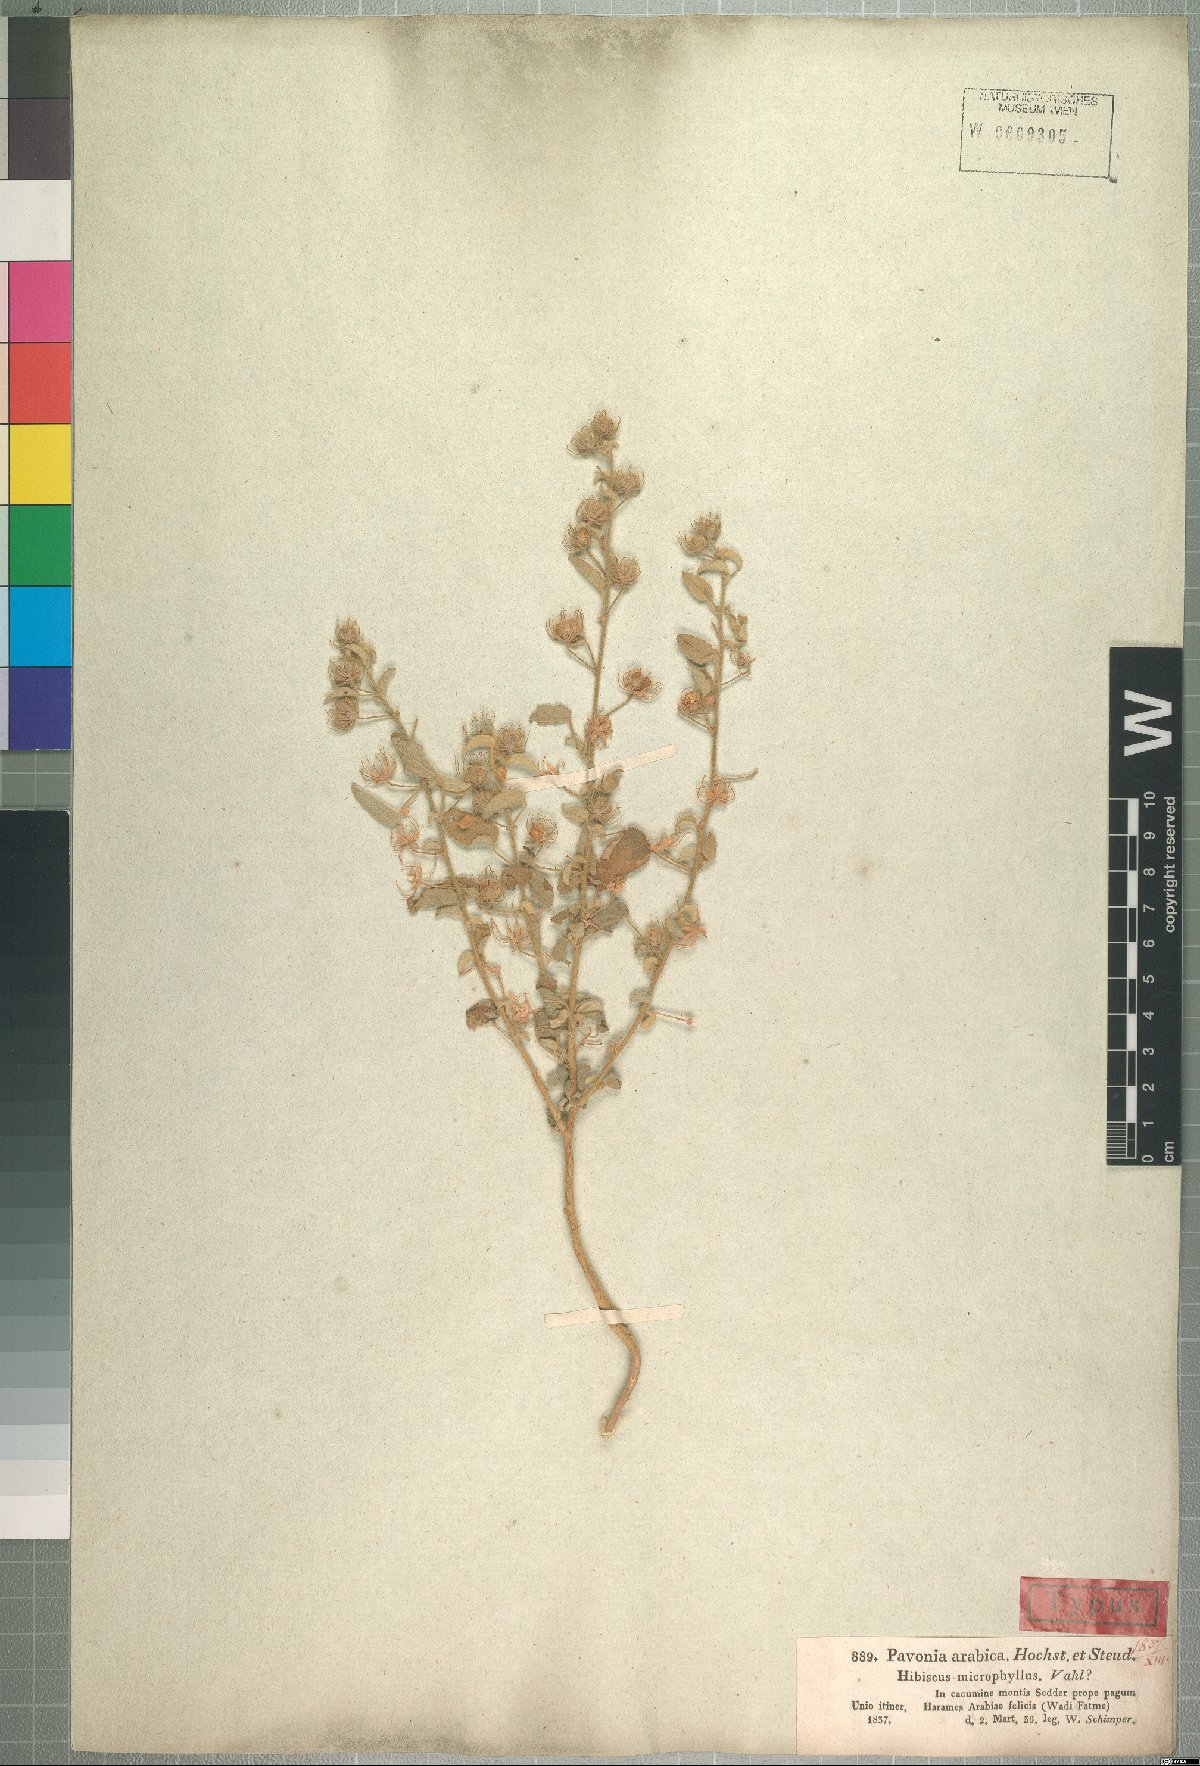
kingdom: Plantae
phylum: Tracheophyta
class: Magnoliopsida
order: Malvales
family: Malvaceae
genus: Pavonia
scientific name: Pavonia arabica
